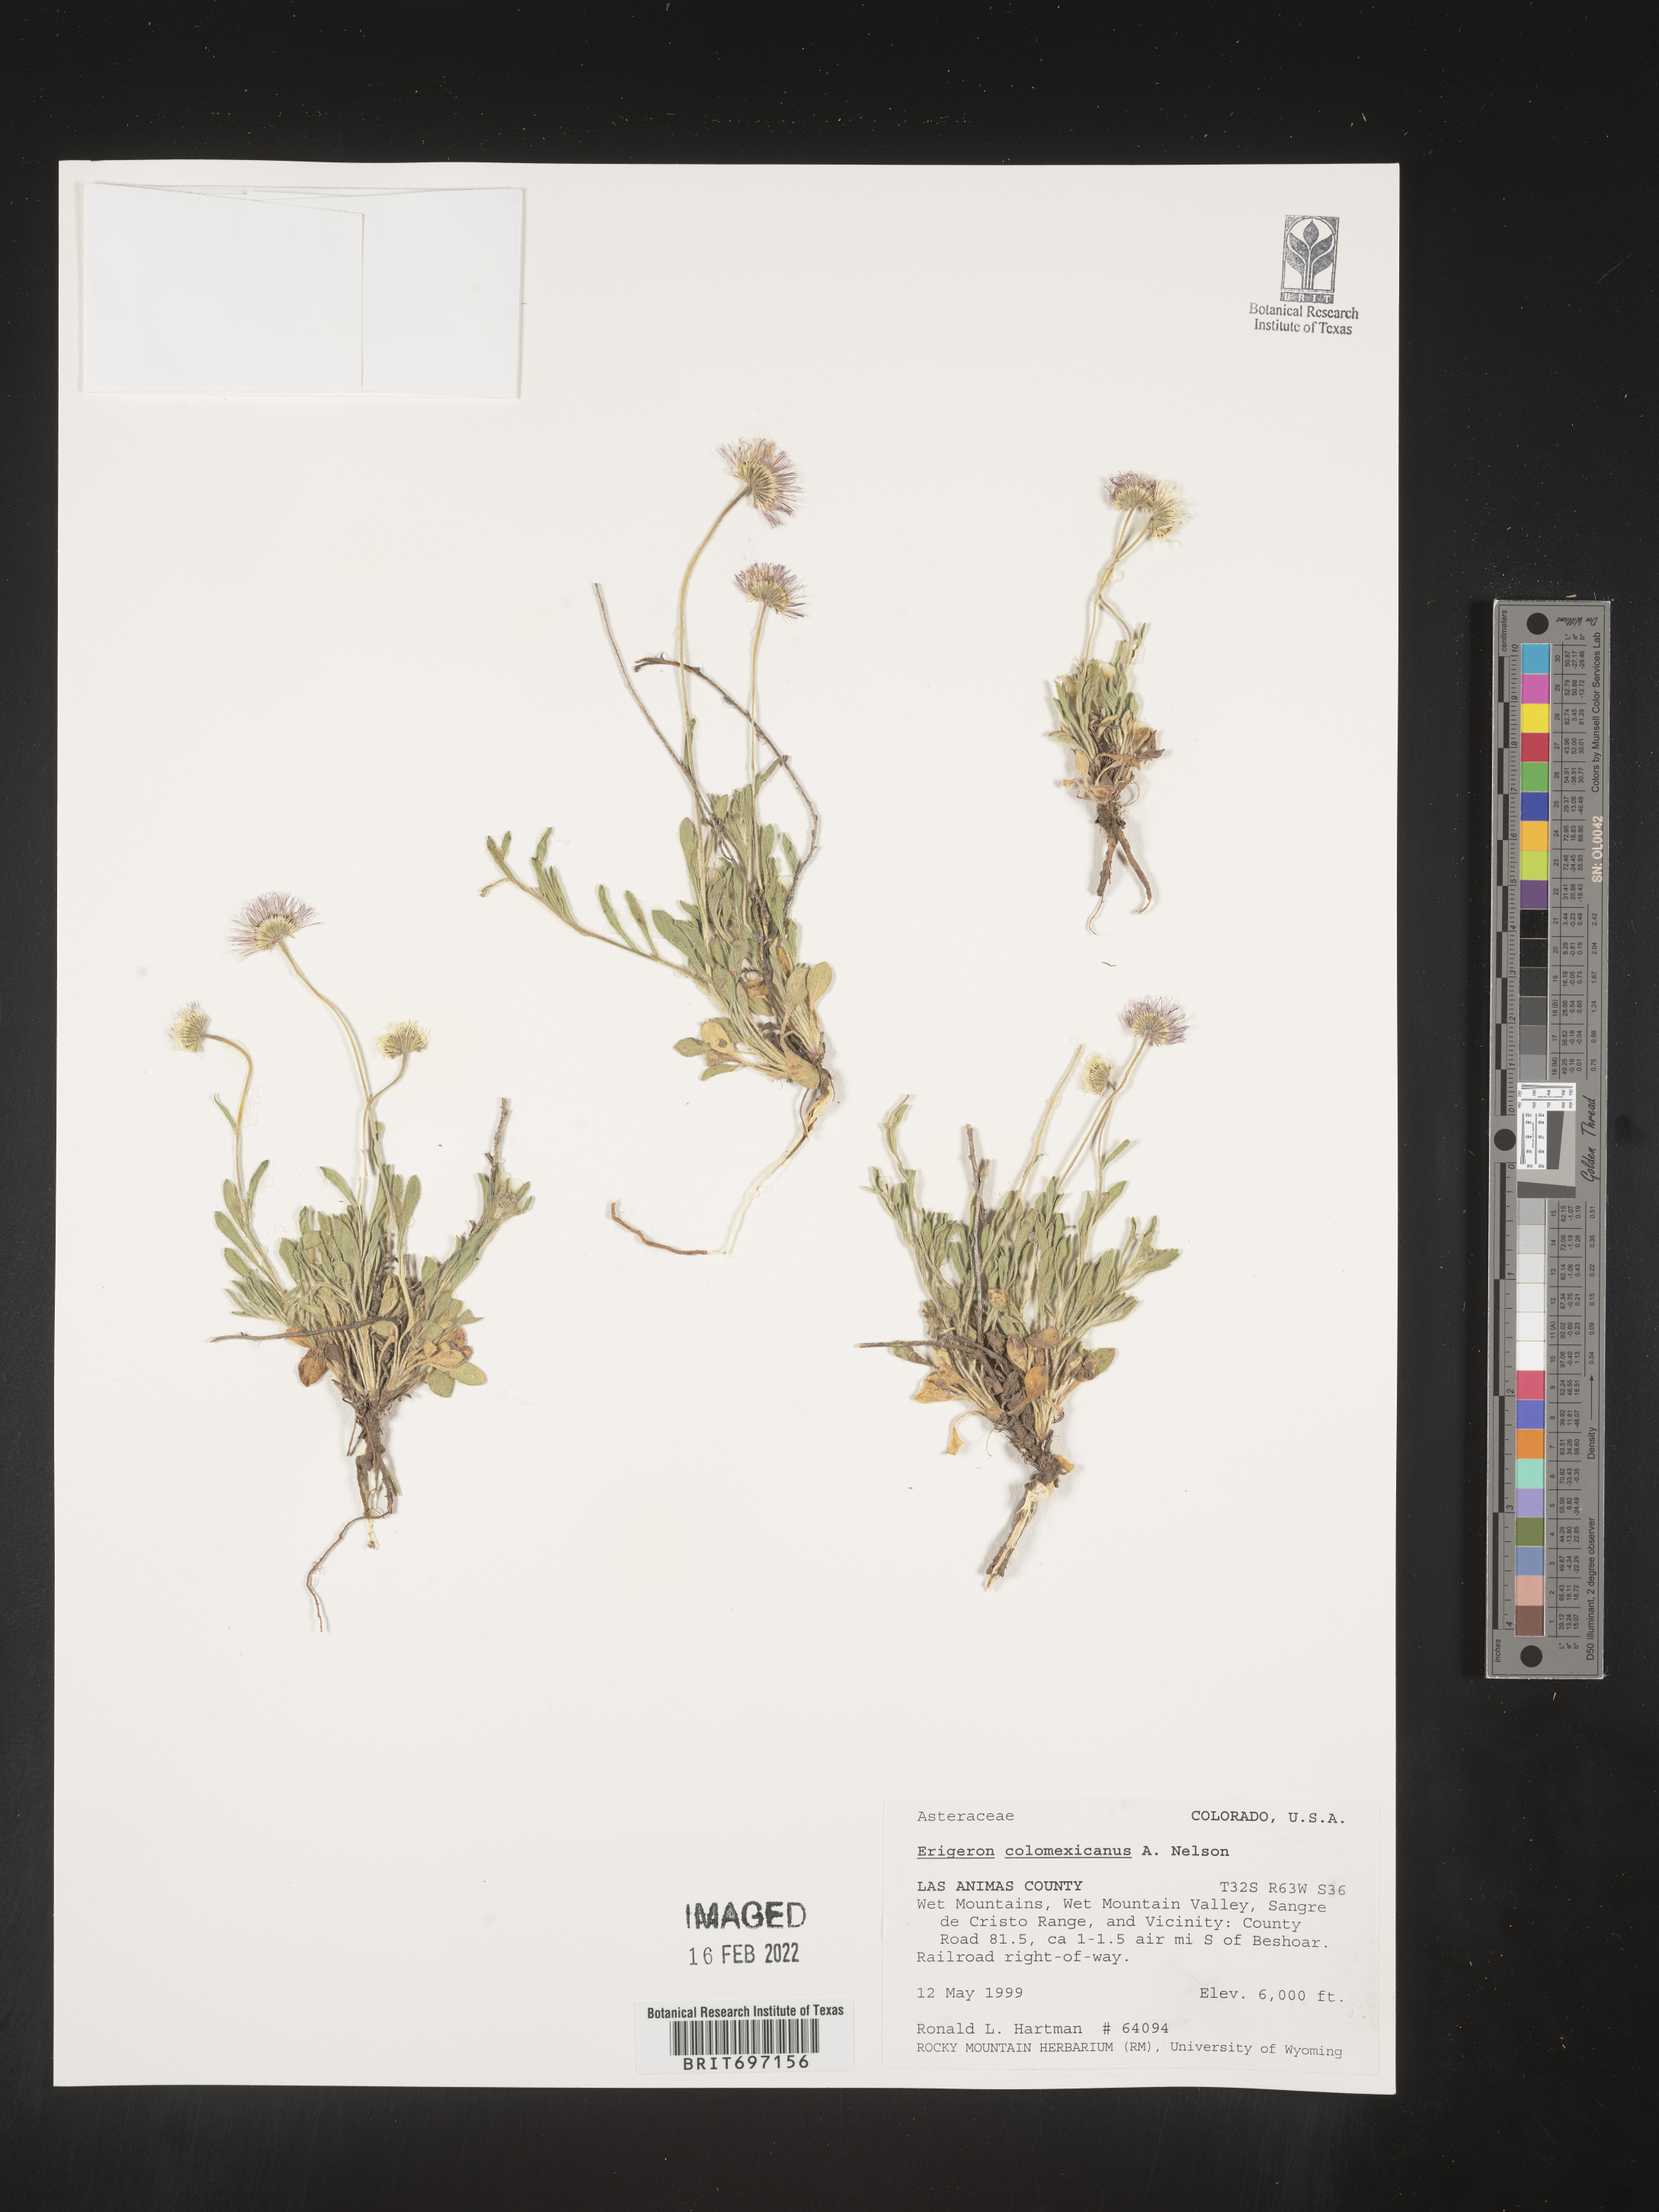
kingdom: Plantae
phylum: Tracheophyta
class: Magnoliopsida
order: Asterales
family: Asteraceae
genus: Erigeron
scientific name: Erigeron tracyi
